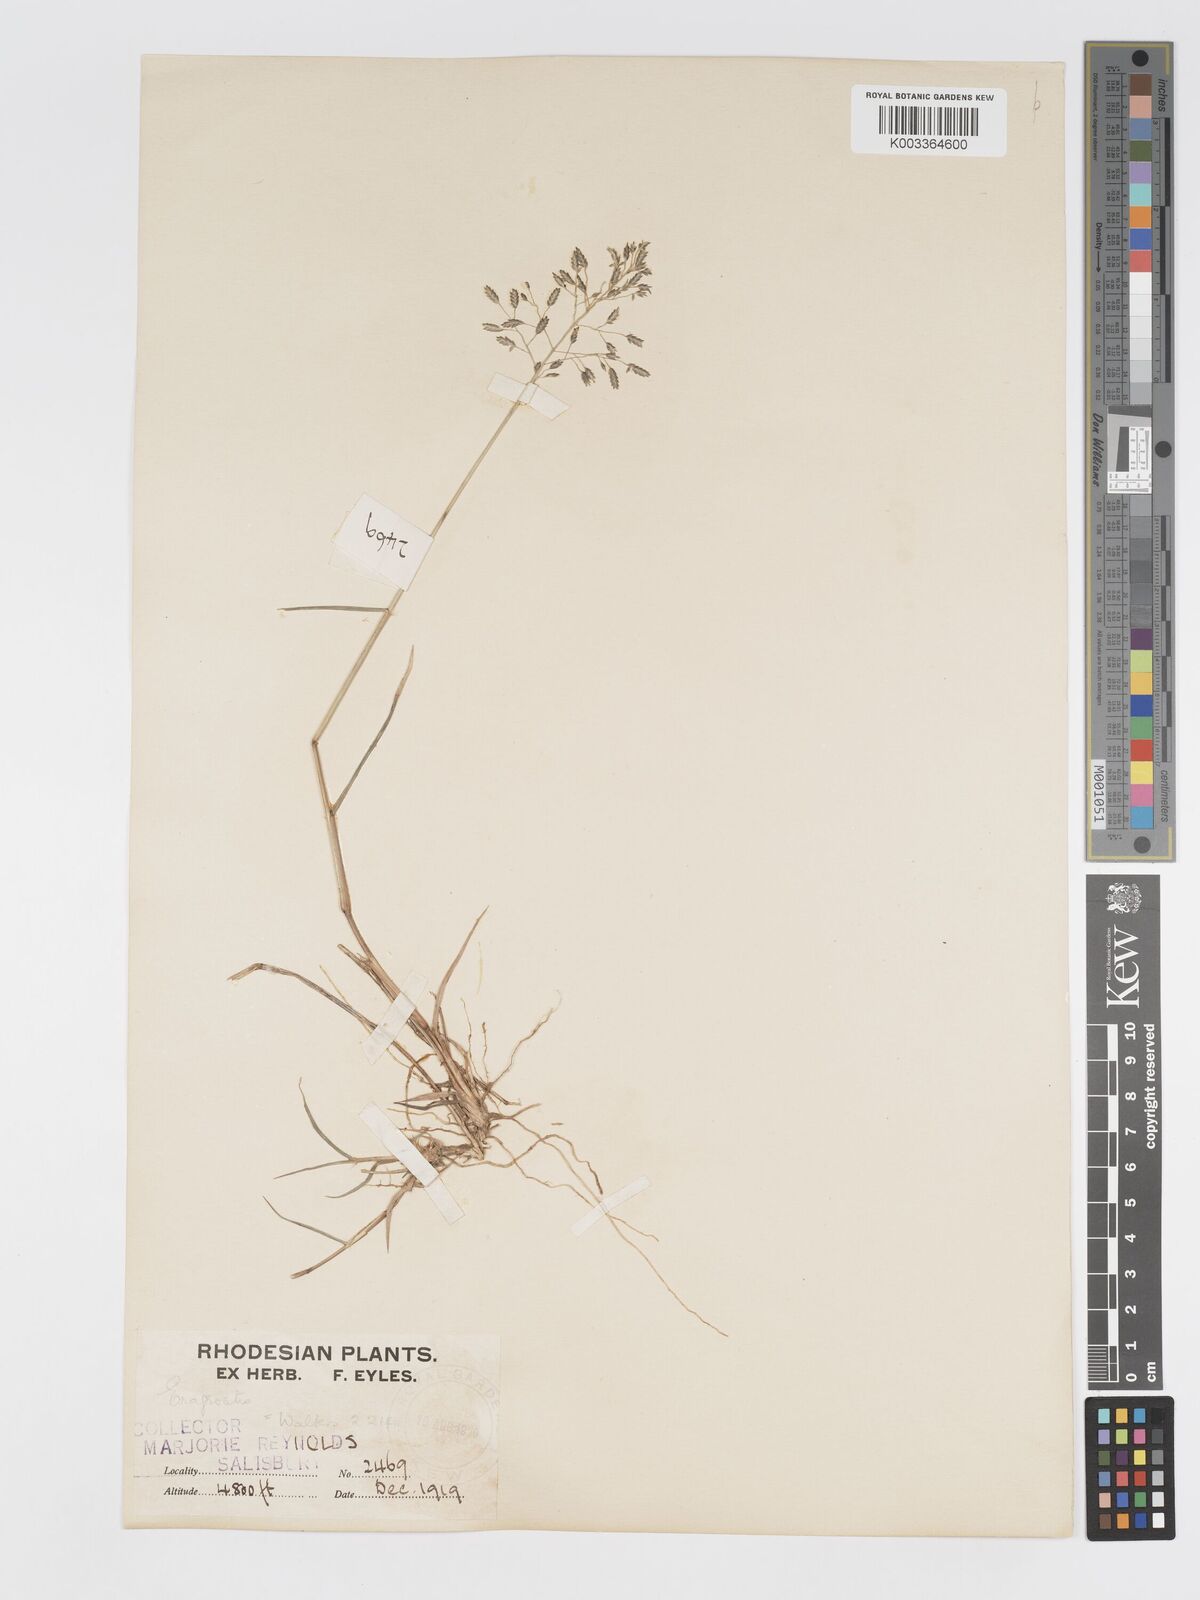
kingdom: Plantae
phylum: Tracheophyta
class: Liliopsida
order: Poales
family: Poaceae
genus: Eragrostis
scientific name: Eragrostis patentipilosa
